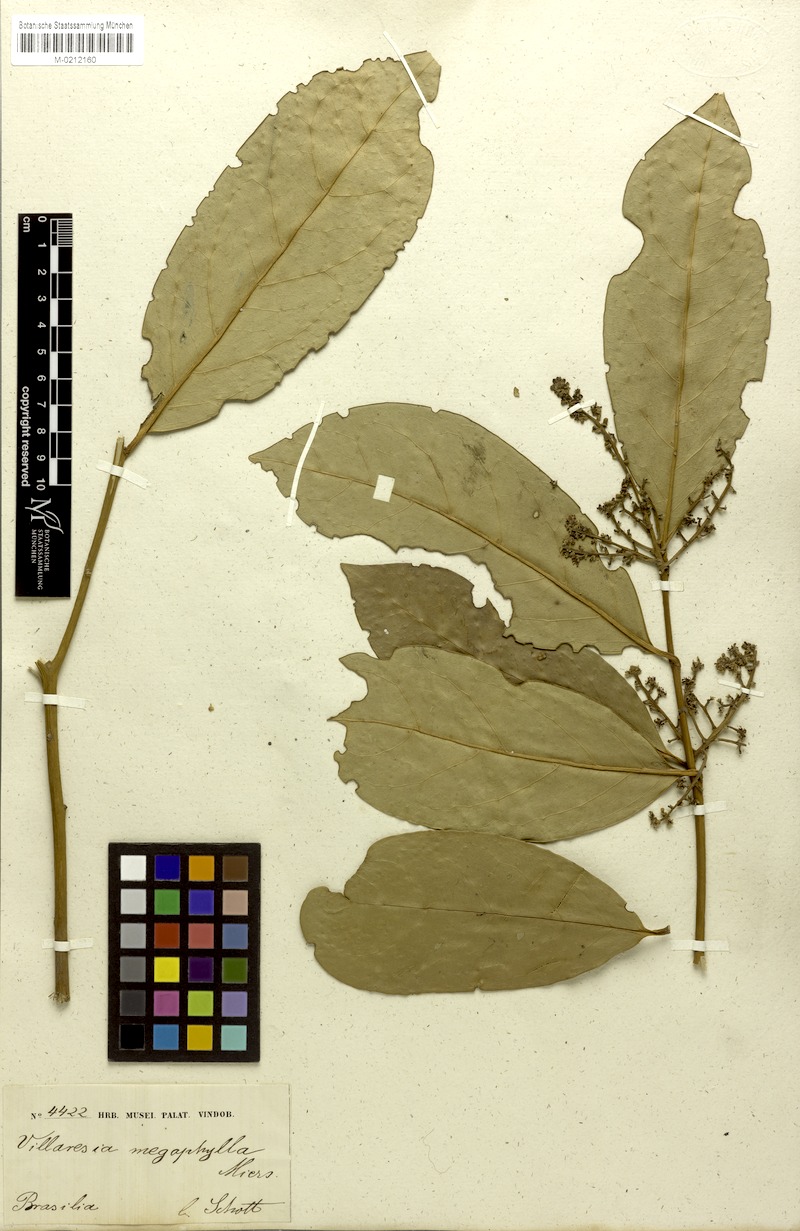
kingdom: Plantae
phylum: Tracheophyta
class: Magnoliopsida
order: Cardiopteridales
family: Cardiopteridaceae
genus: Citronella
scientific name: Citronella paniculata
